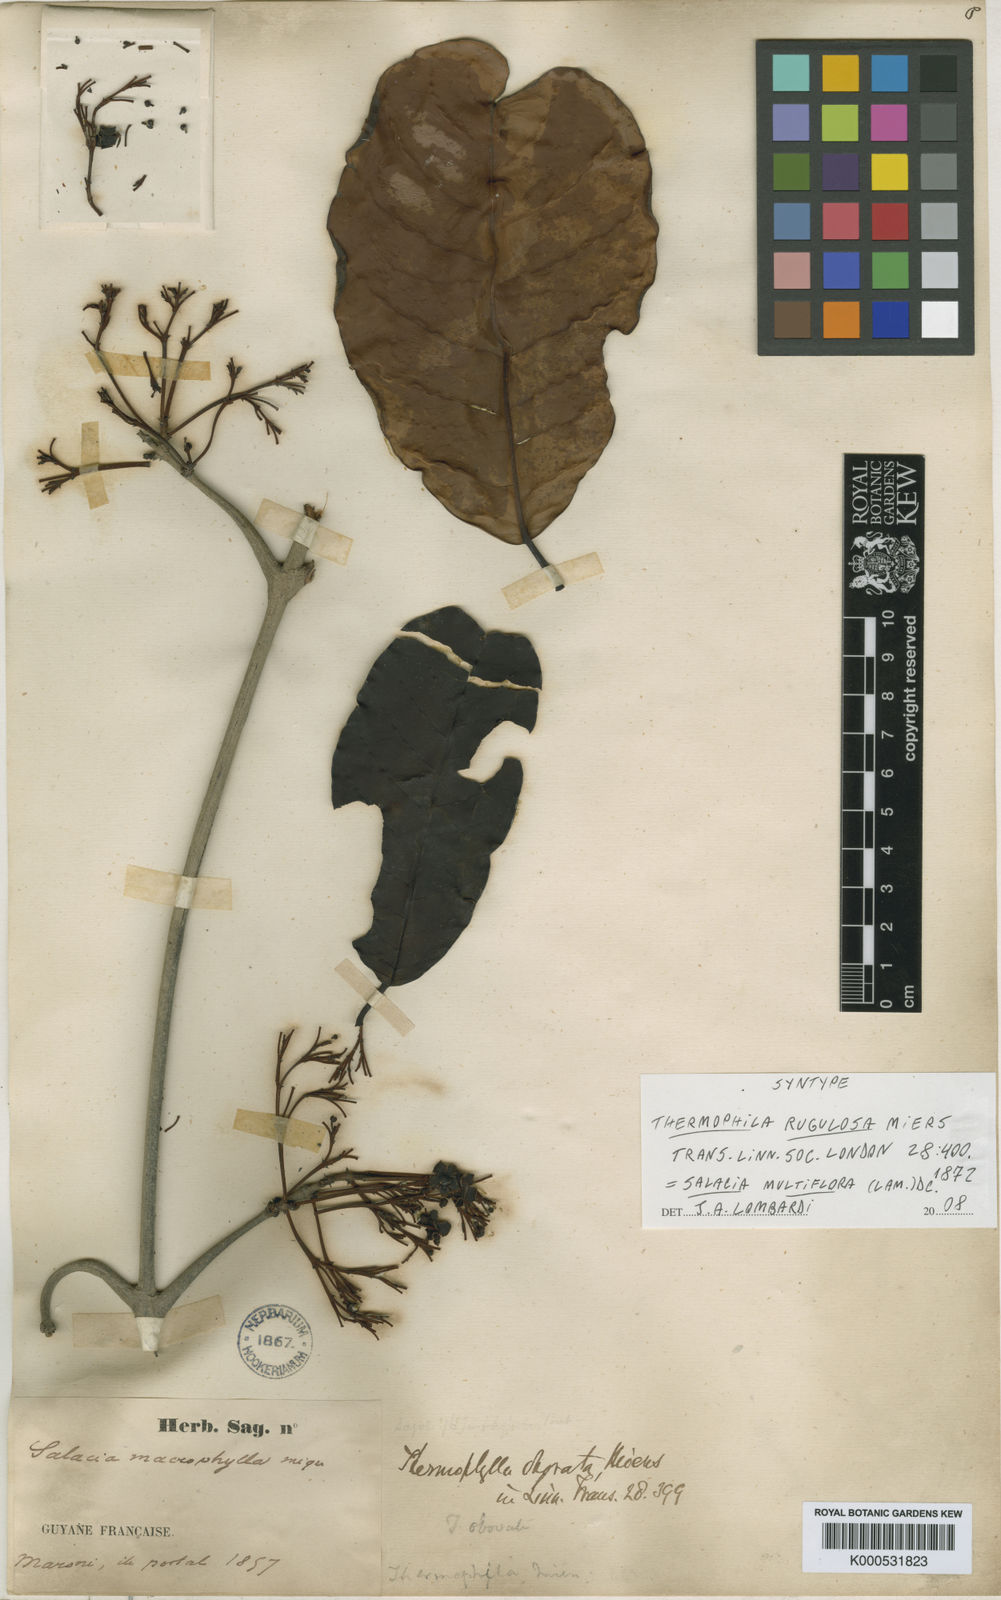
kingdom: Plantae
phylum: Tracheophyta
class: Magnoliopsida
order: Celastrales
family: Celastraceae
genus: Salacia
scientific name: Salacia multiflora
